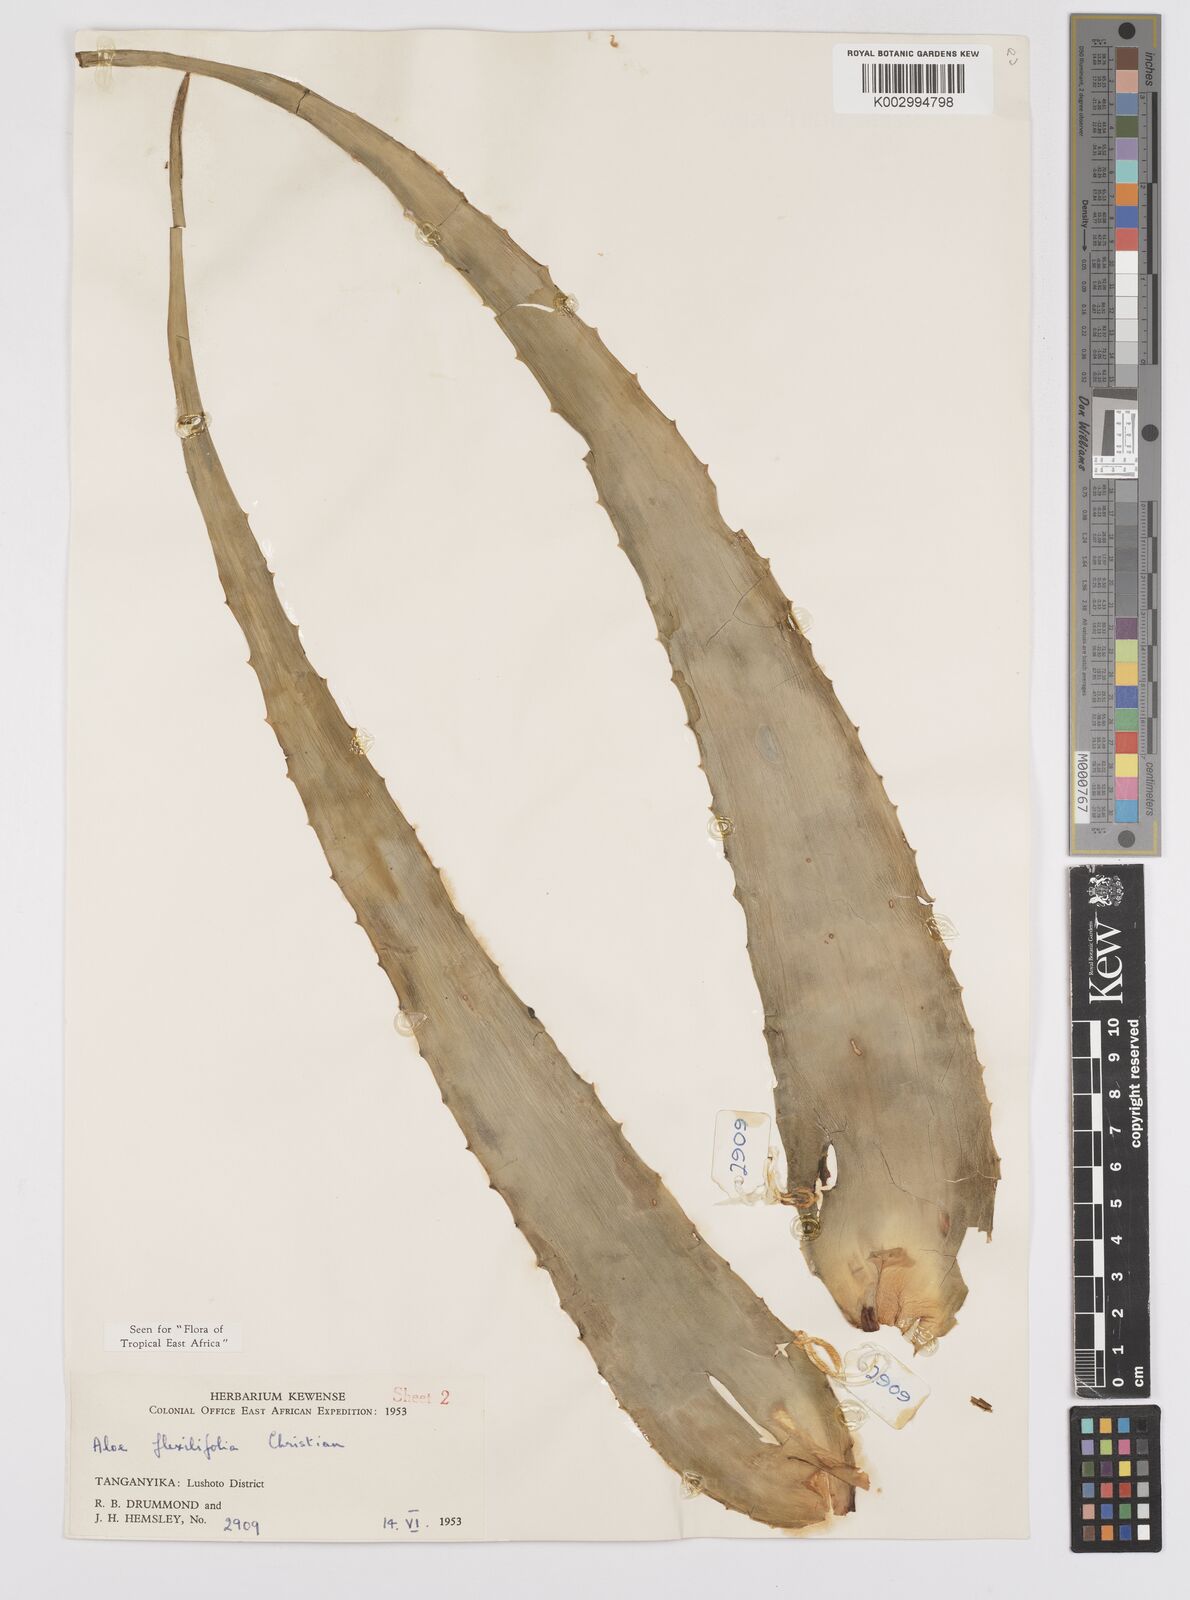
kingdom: Plantae
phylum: Tracheophyta
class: Liliopsida
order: Asparagales
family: Asphodelaceae
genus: Aloe
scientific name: Aloe flexilifolia
